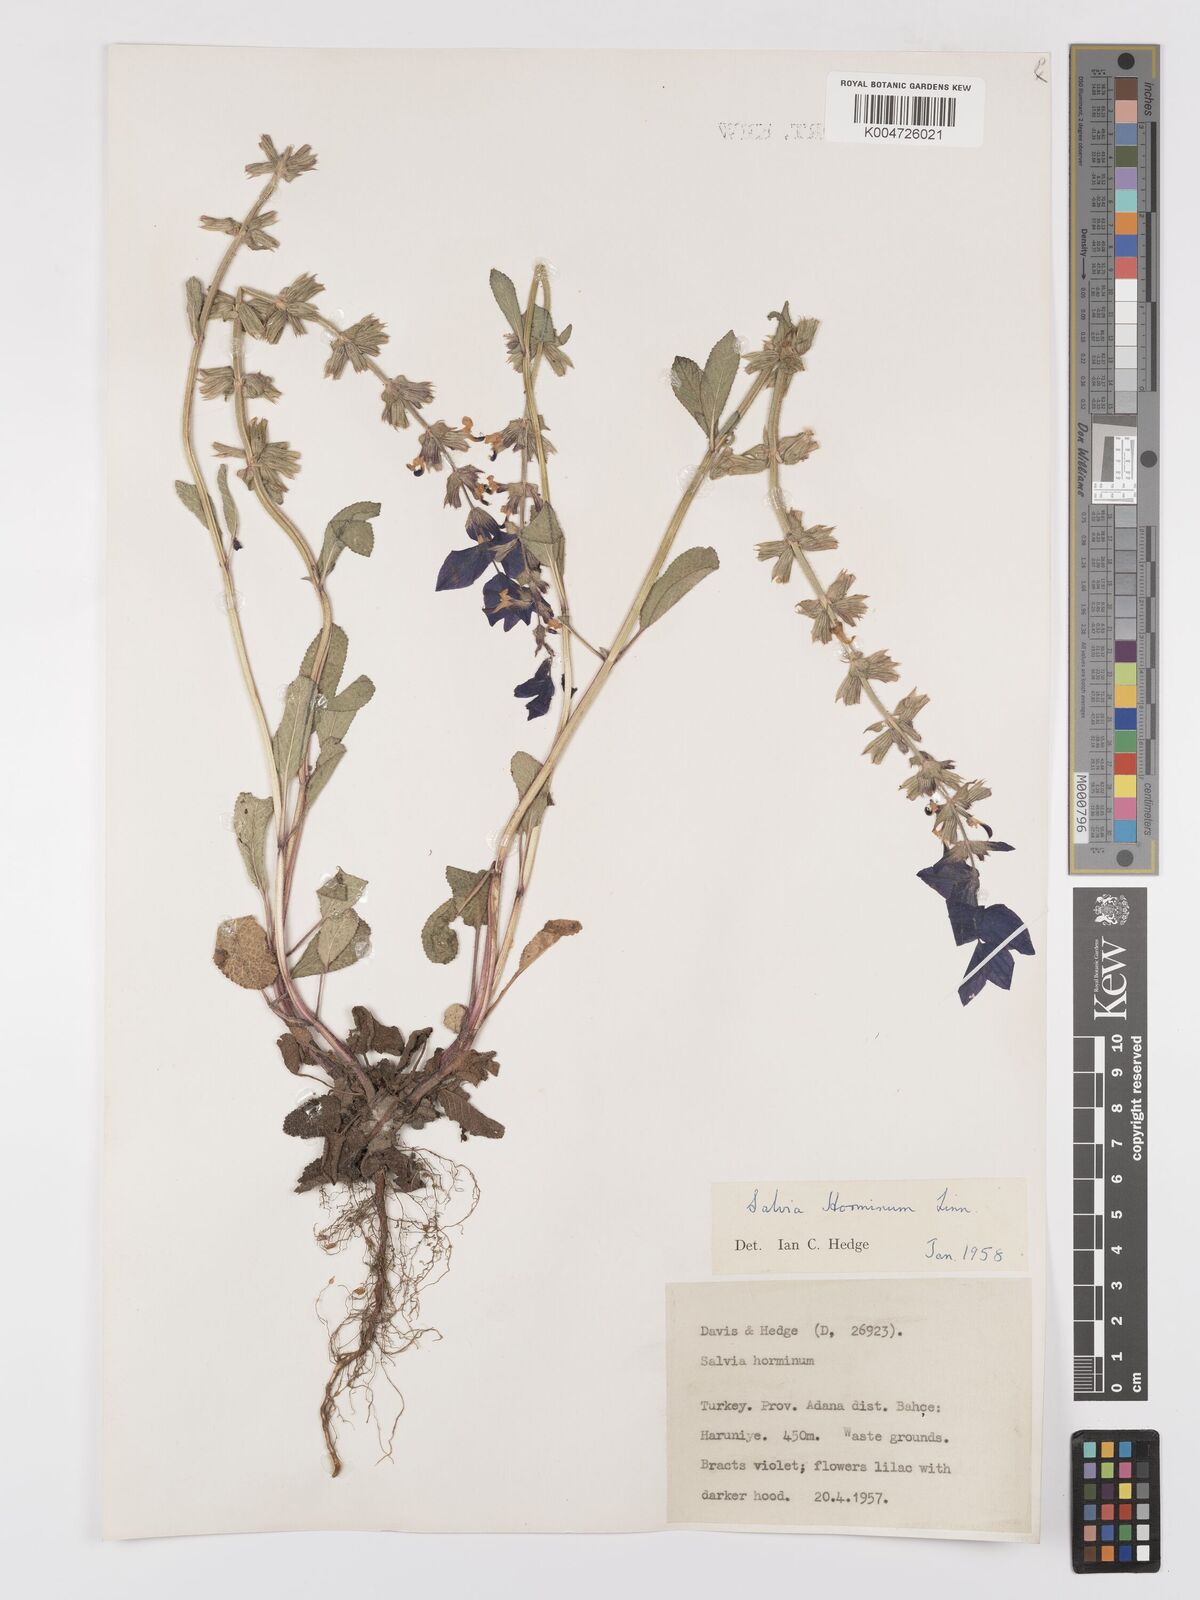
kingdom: Plantae
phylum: Tracheophyta
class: Magnoliopsida
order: Lamiales
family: Lamiaceae
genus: Salvia
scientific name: Salvia viridis
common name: Annual clary
